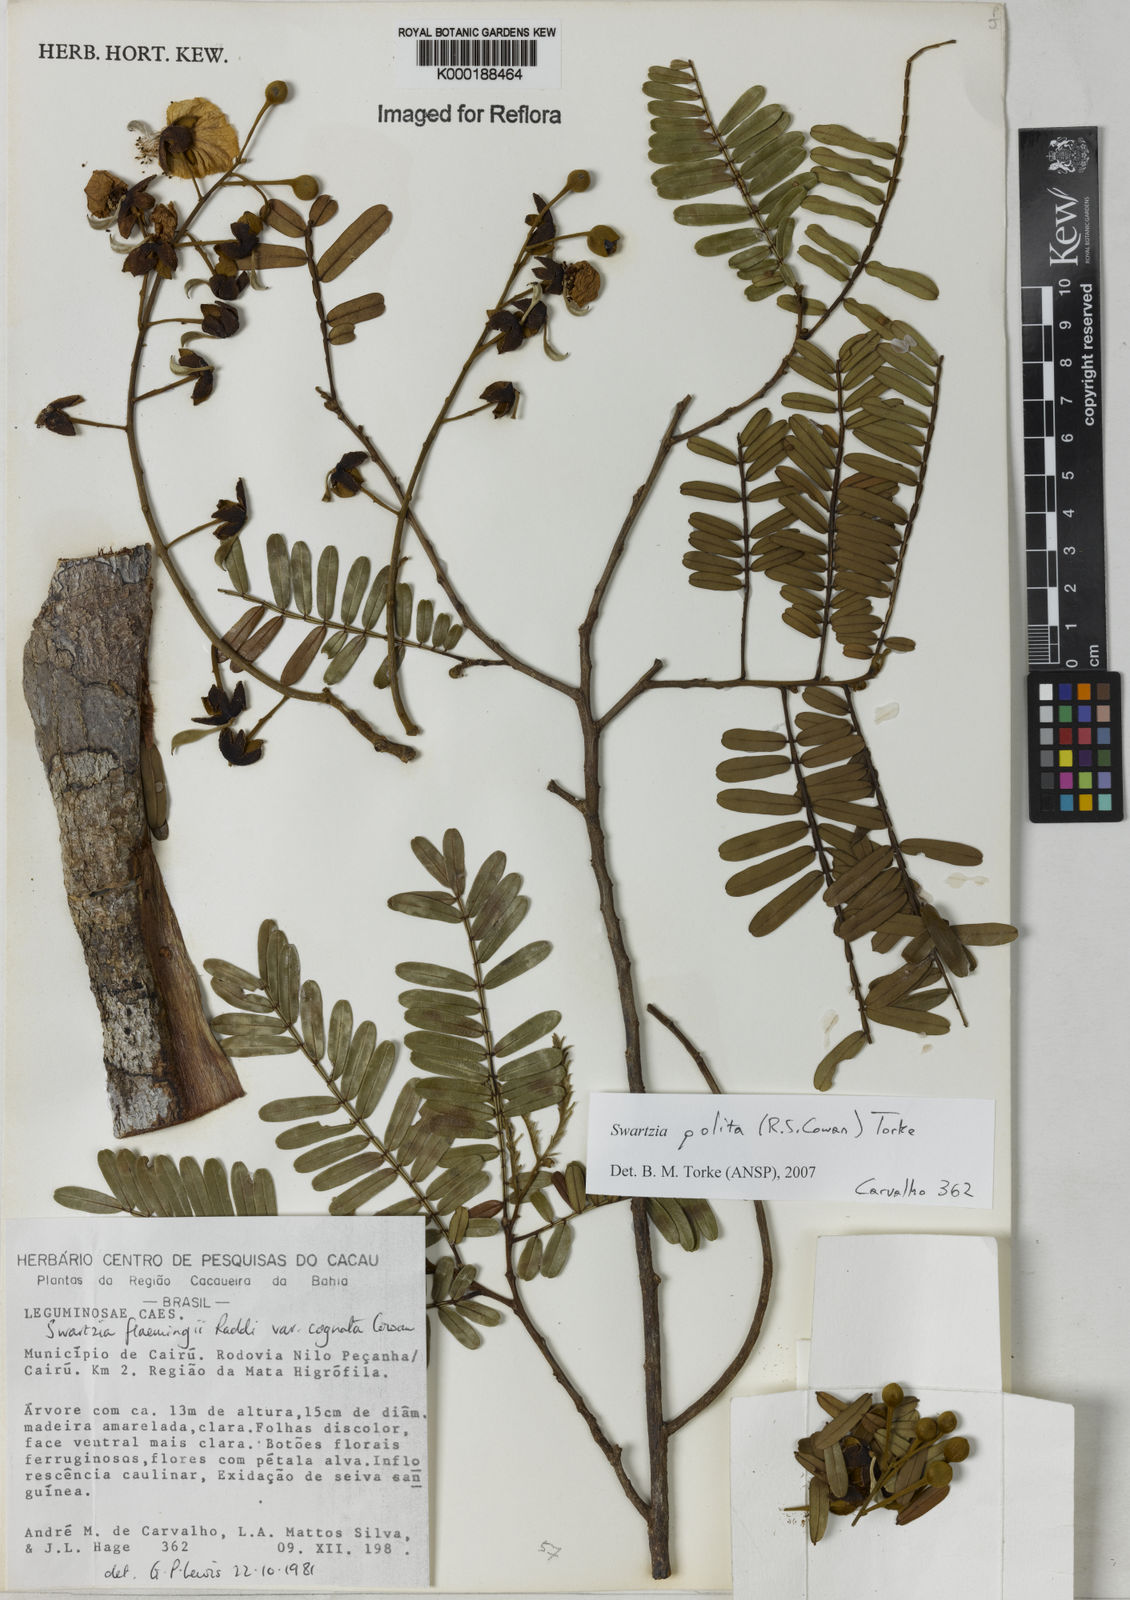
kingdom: Plantae
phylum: Tracheophyta
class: Magnoliopsida
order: Fabales
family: Fabaceae
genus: Swartzia
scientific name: Swartzia polita
